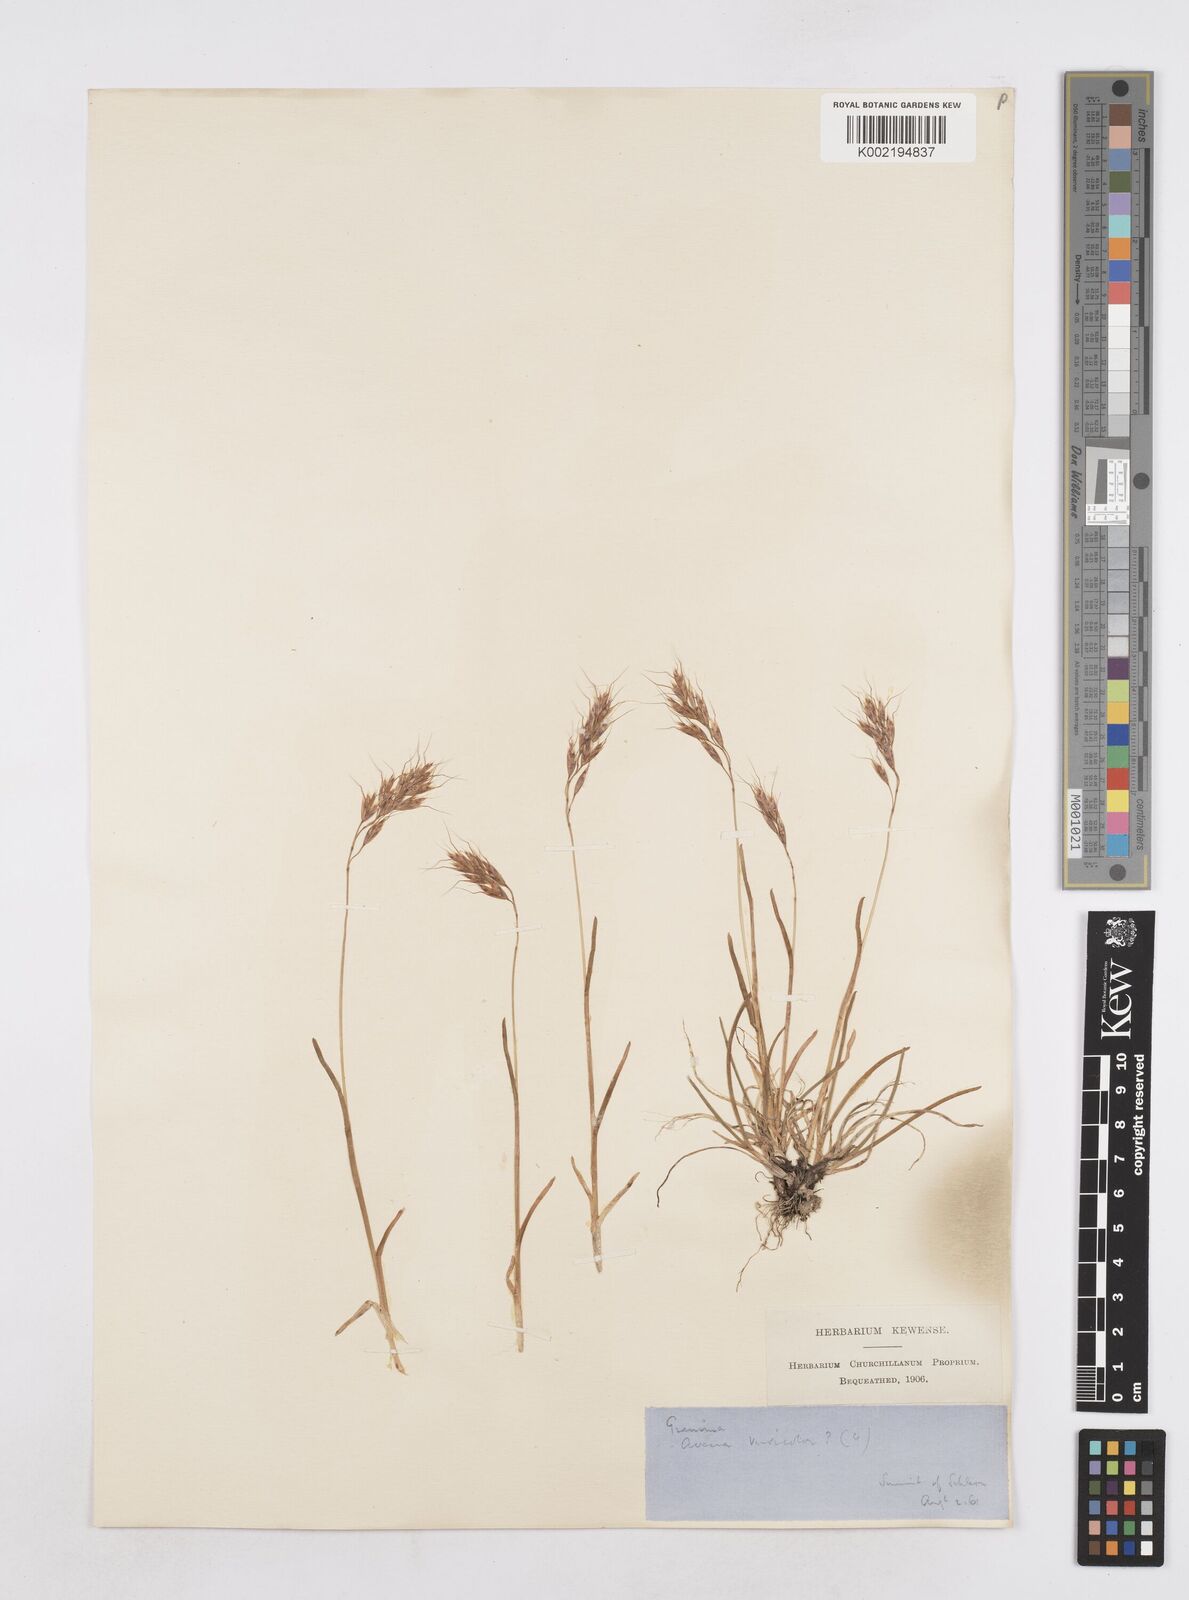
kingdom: Plantae
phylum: Tracheophyta
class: Liliopsida
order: Poales
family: Poaceae
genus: Helictotrichon
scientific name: Helictotrichon
